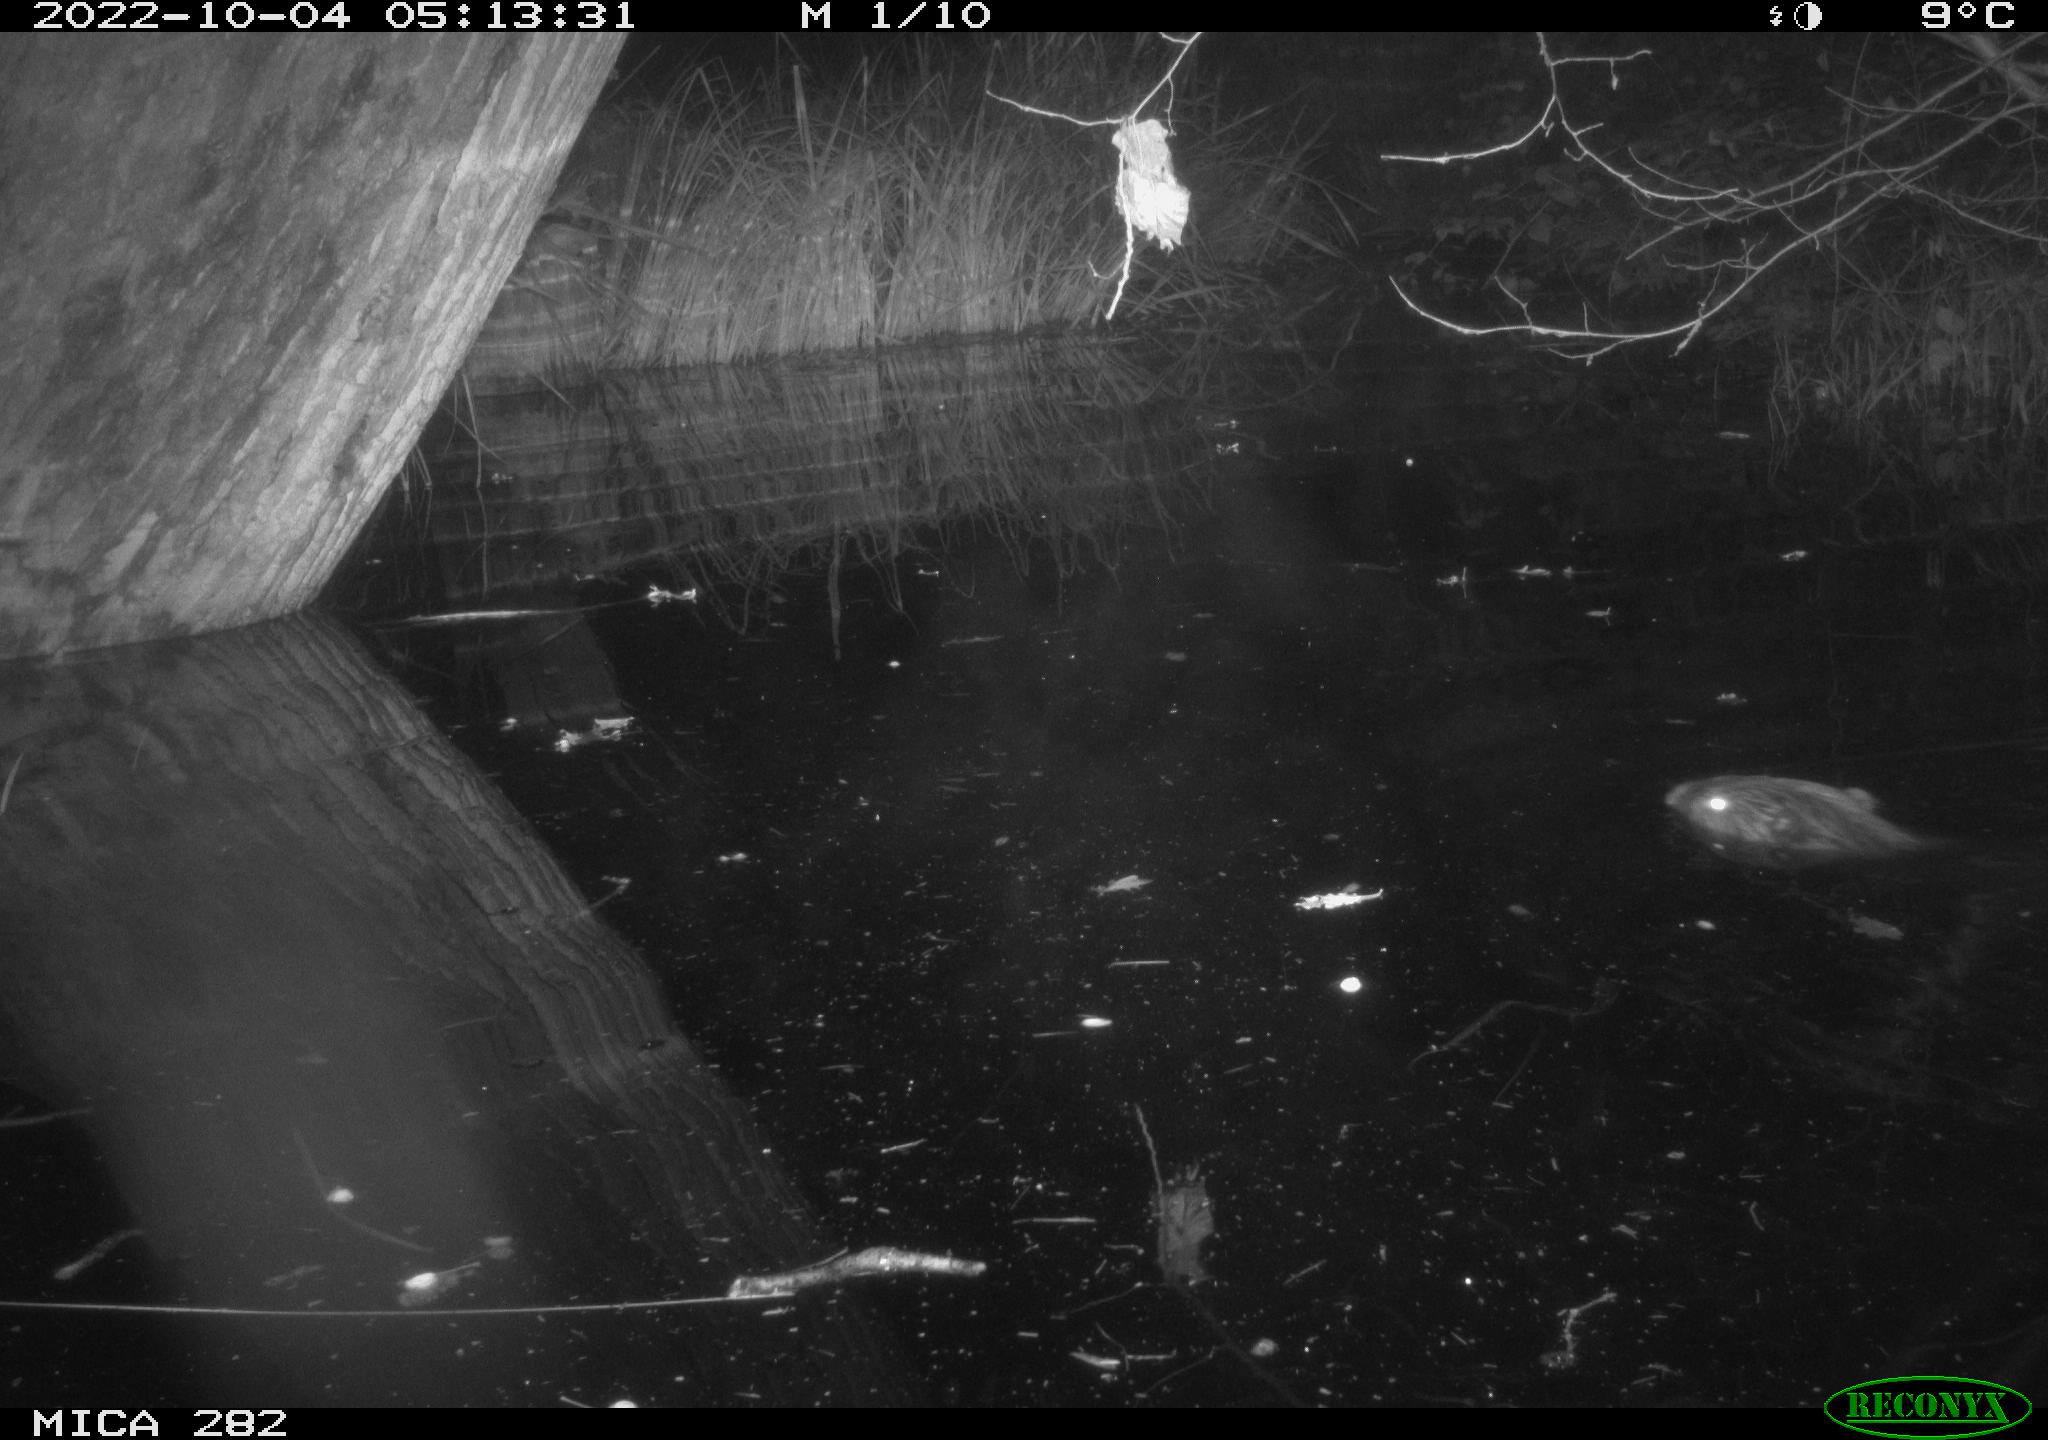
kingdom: Animalia
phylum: Chordata
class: Mammalia
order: Rodentia
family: Castoridae
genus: Castor
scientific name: Castor fiber
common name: Eurasian beaver
